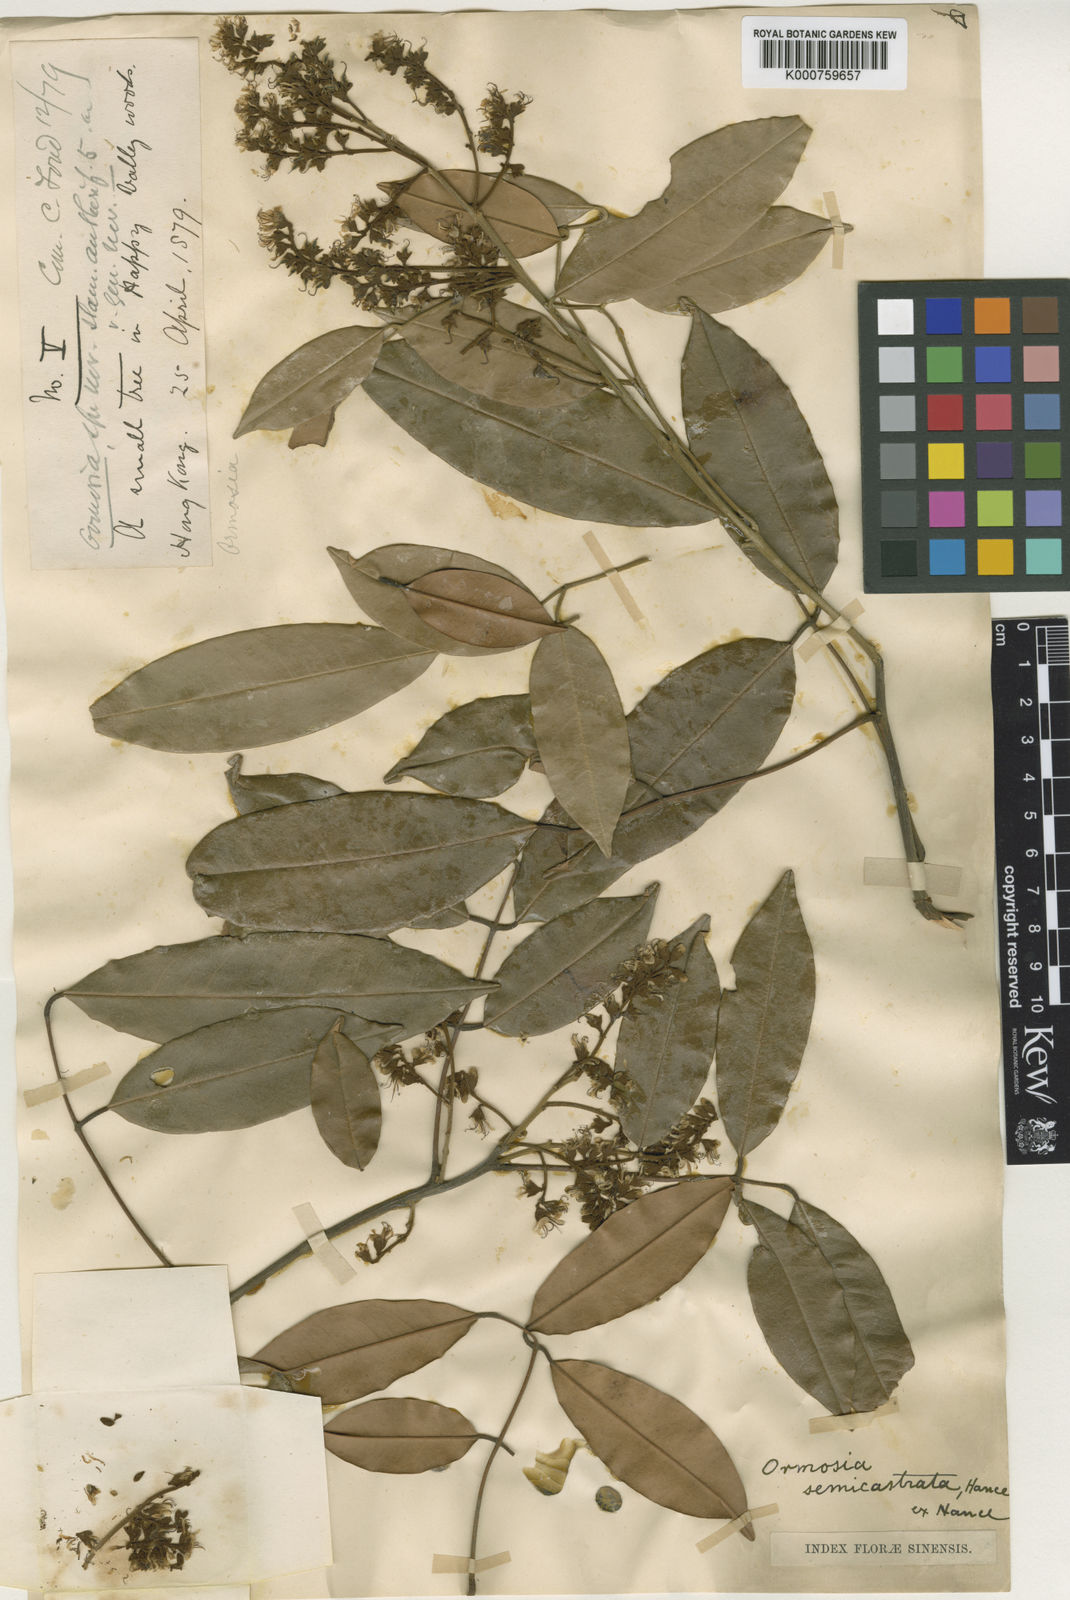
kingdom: Plantae
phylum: Tracheophyta
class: Magnoliopsida
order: Fabales
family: Fabaceae
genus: Ormosia
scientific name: Ormosia semicastrata
